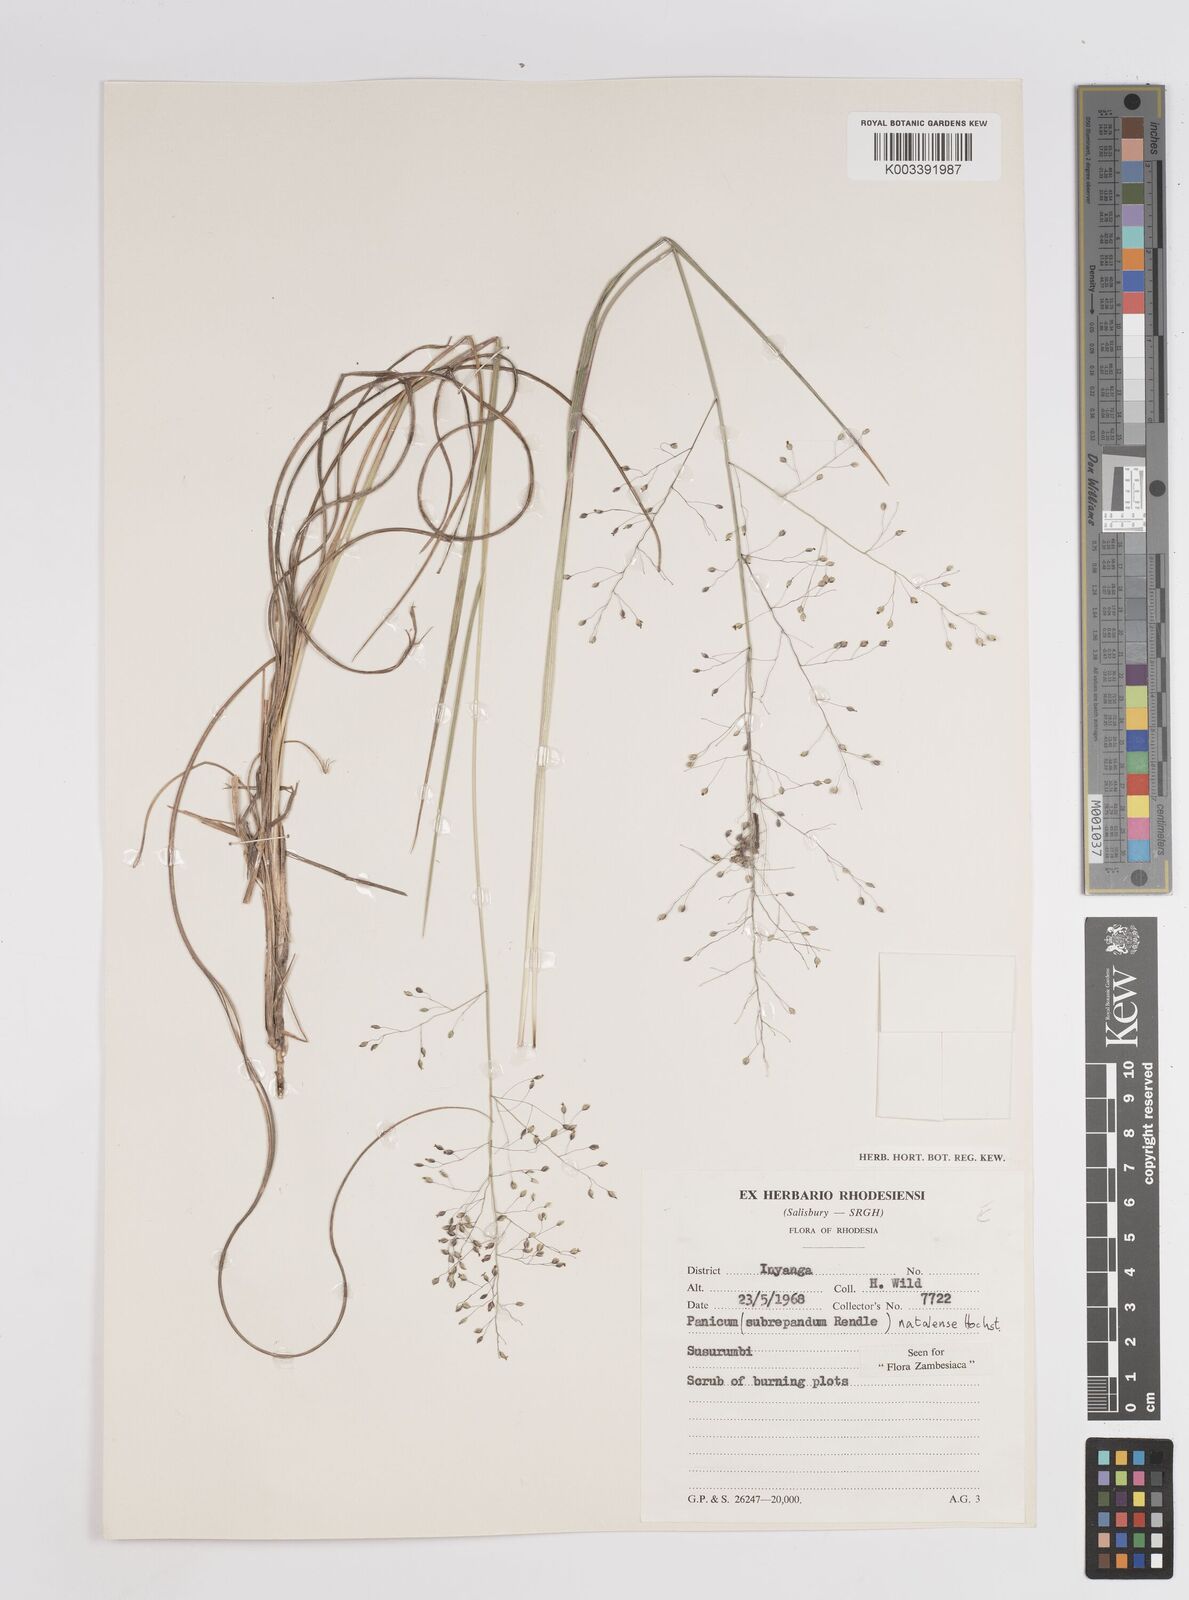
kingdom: Plantae
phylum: Tracheophyta
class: Liliopsida
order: Poales
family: Poaceae
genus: Trichanthecium
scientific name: Trichanthecium natalense
